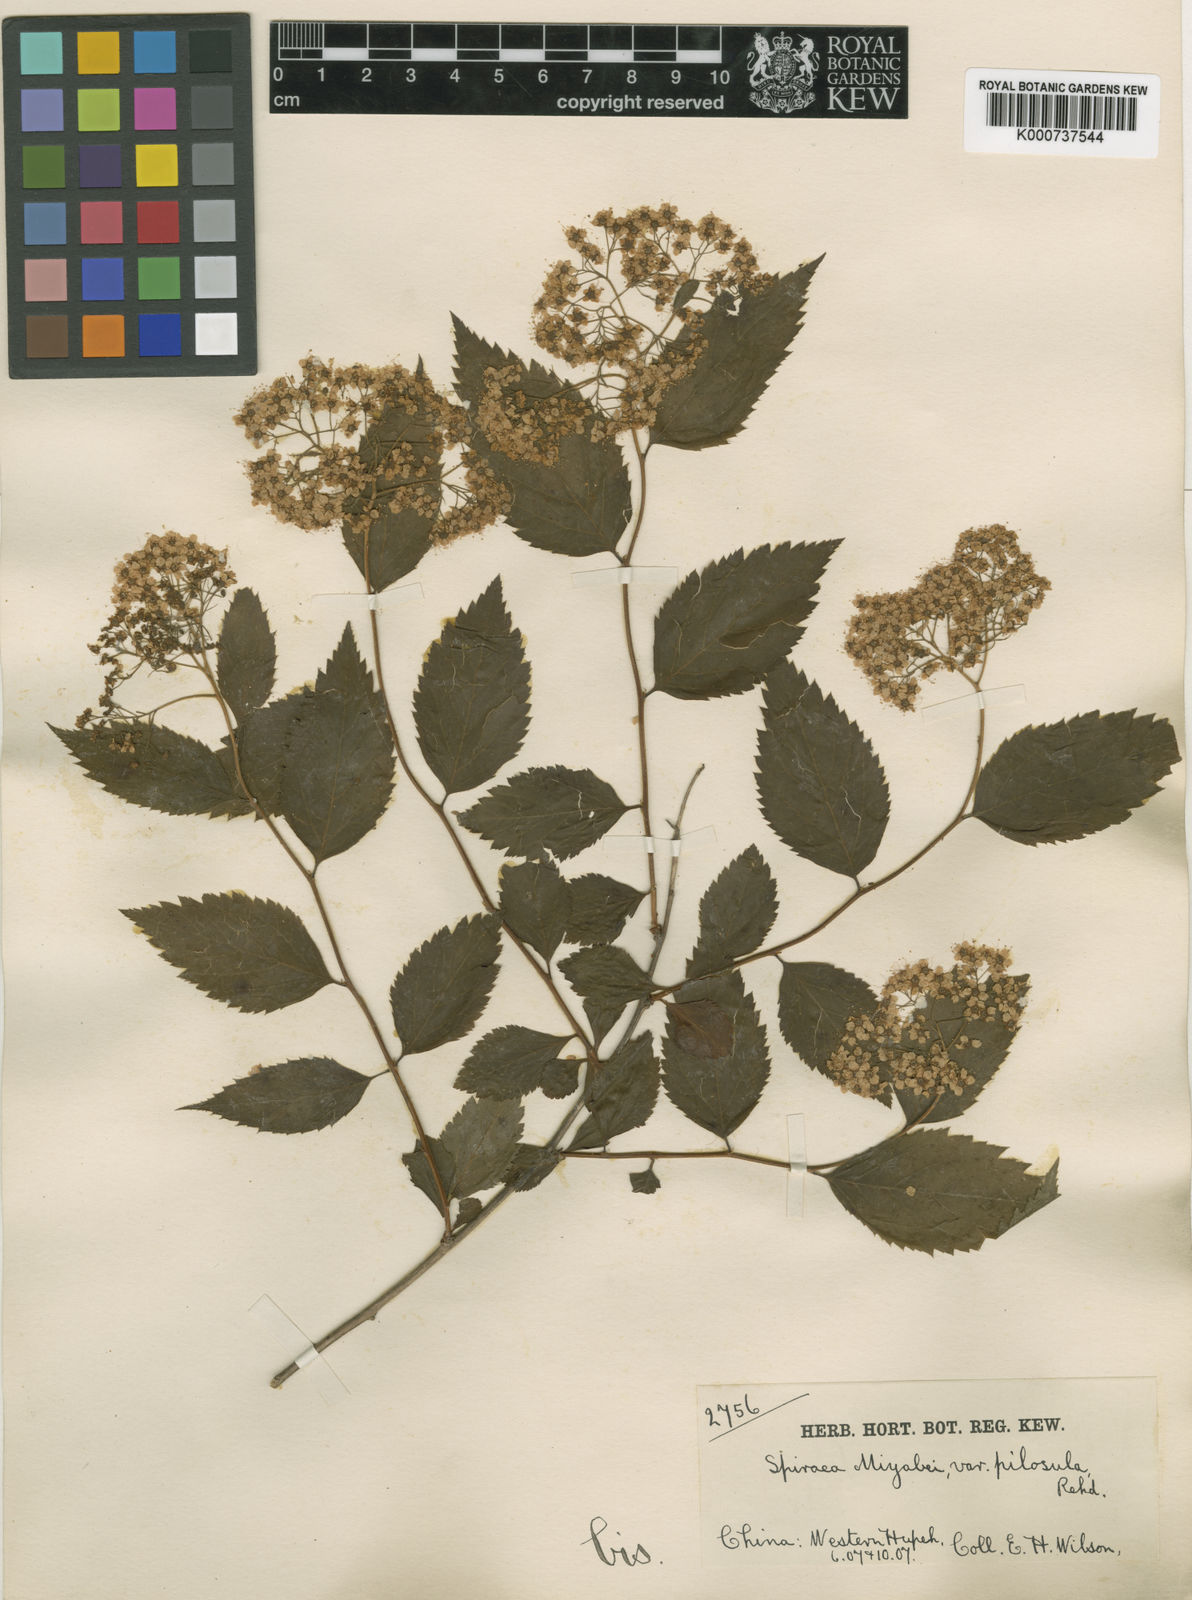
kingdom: Plantae
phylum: Tracheophyta
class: Magnoliopsida
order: Rosales
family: Rosaceae
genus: Spiraea
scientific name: Spiraea
